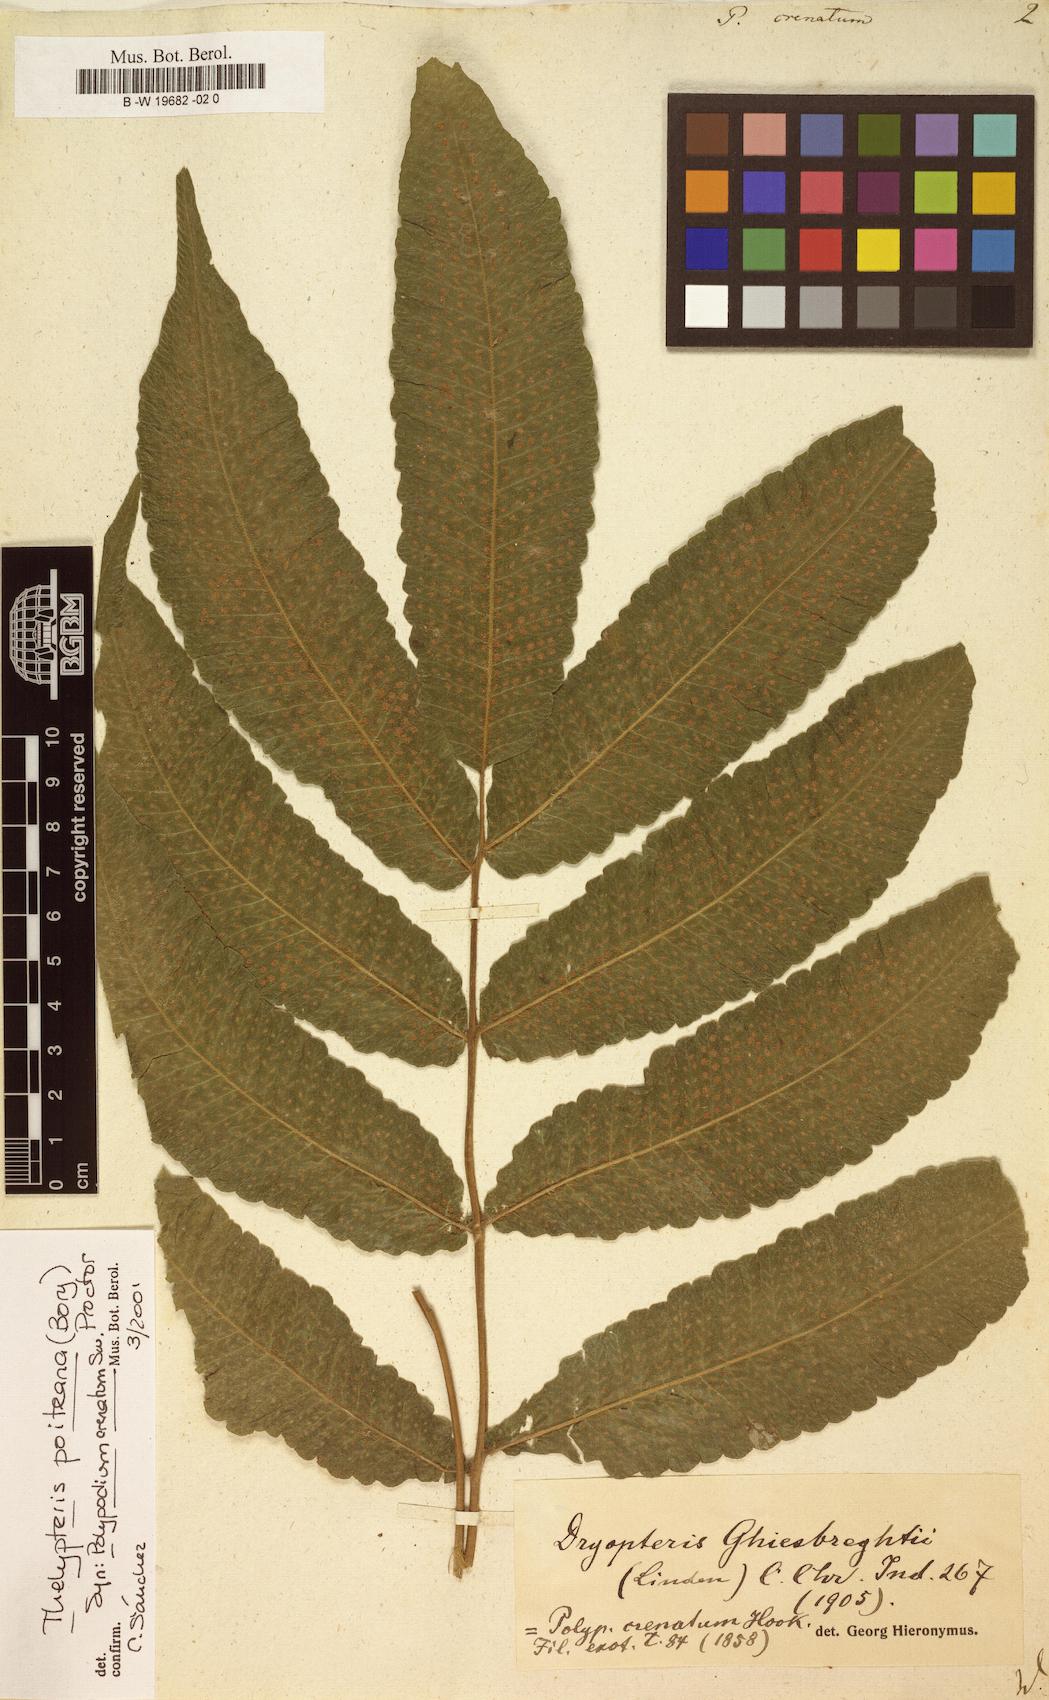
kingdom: Plantae
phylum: Tracheophyta
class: Polypodiopsida
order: Polypodiales
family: Thelypteridaceae
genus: Goniopteris
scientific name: Goniopteris poiteana
